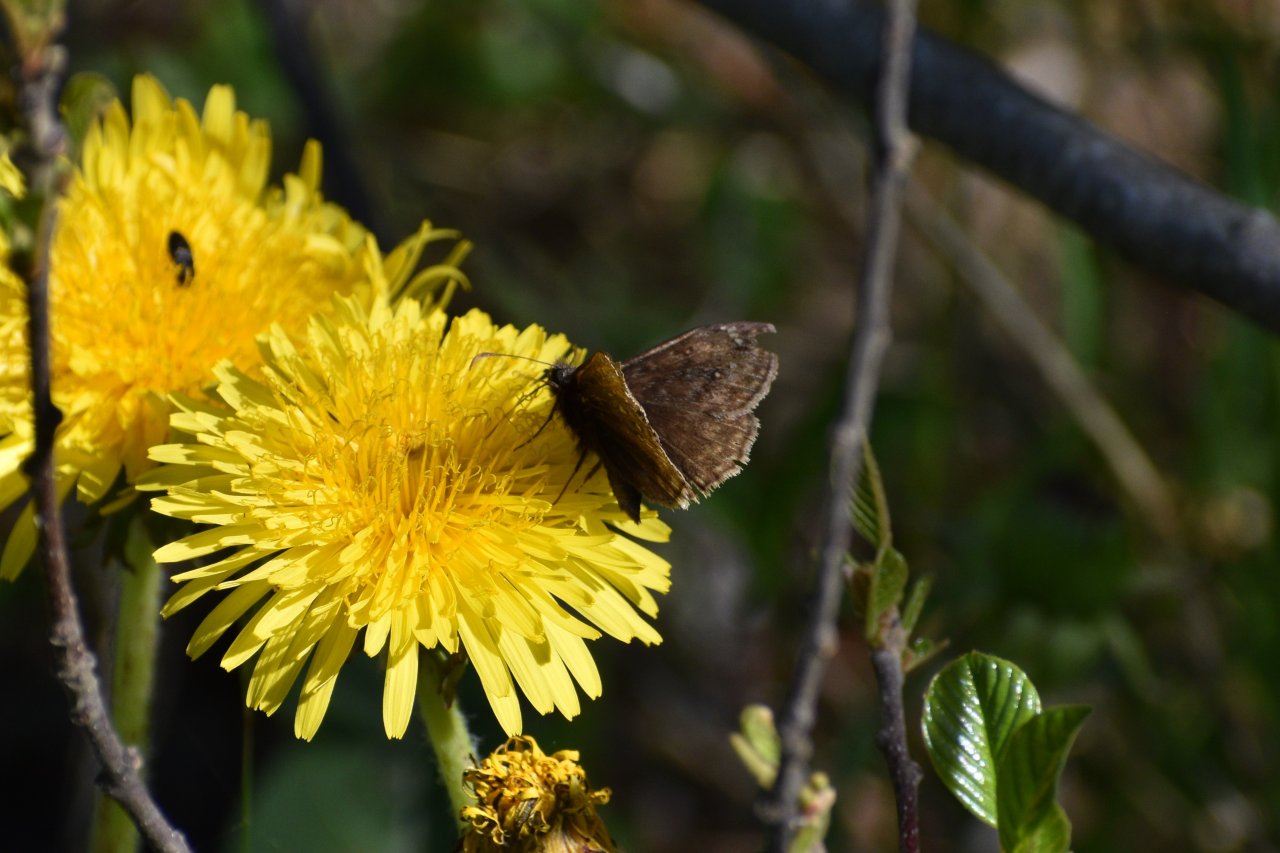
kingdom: Animalia
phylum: Arthropoda
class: Insecta
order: Lepidoptera
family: Hesperiidae
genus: Gesta
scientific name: Gesta
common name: Juvenal's Duskywing
